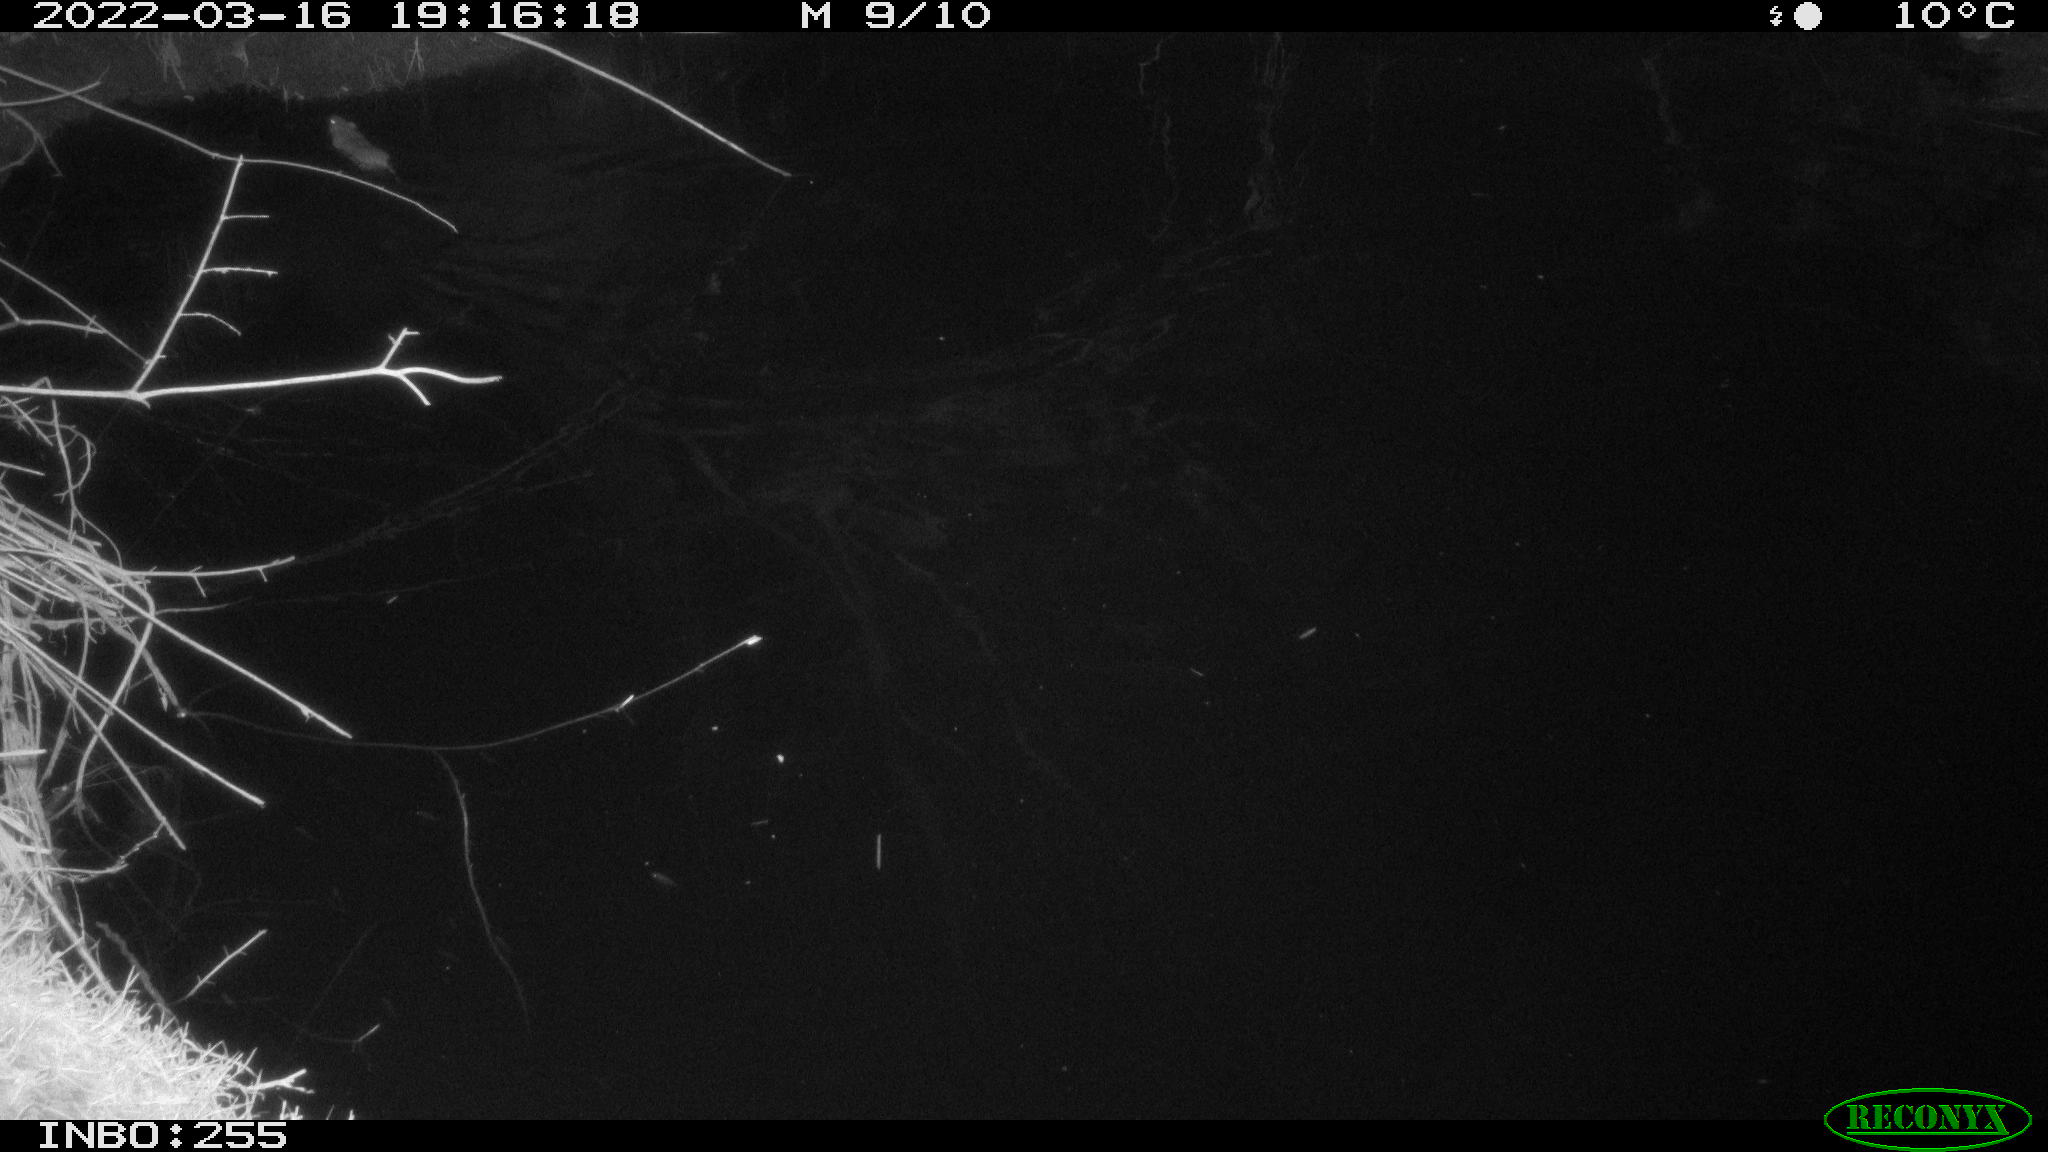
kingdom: Animalia
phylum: Chordata
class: Mammalia
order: Rodentia
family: Muridae
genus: Rattus
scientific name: Rattus norvegicus
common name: Brown rat
